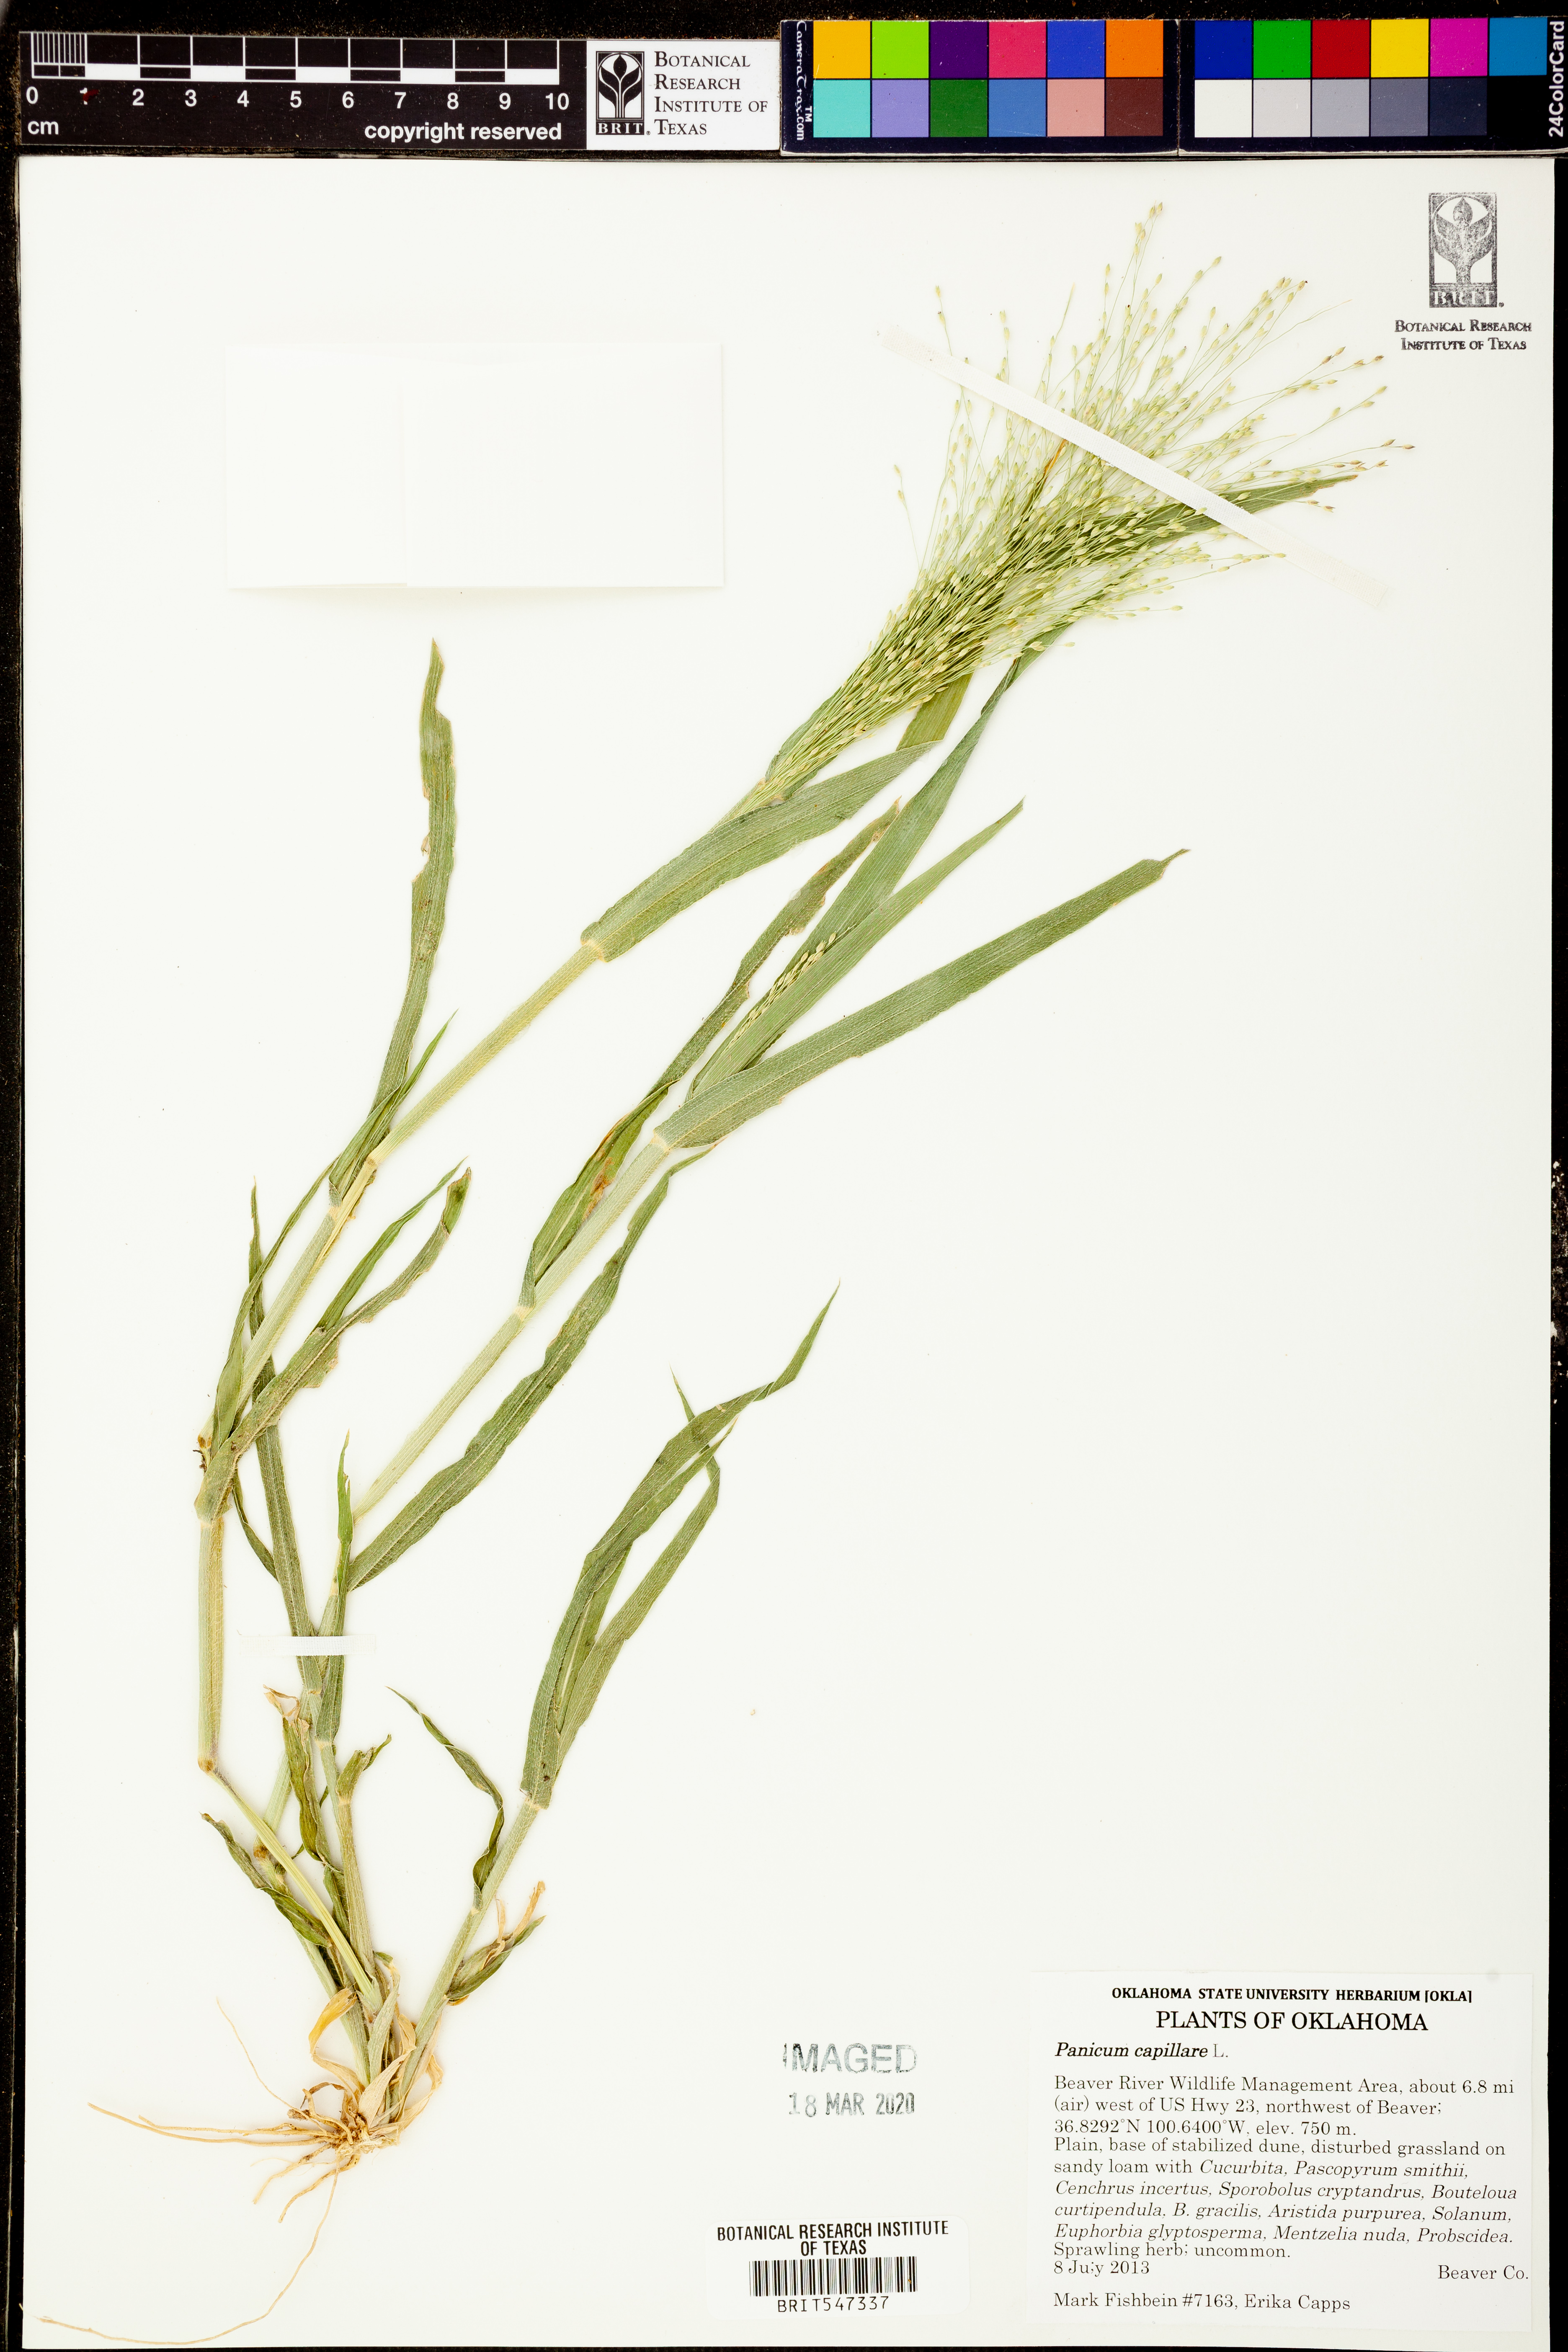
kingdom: Plantae
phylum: Tracheophyta
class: Liliopsida
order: Poales
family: Poaceae
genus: Panicum
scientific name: Panicum capillare
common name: Witch-grass
